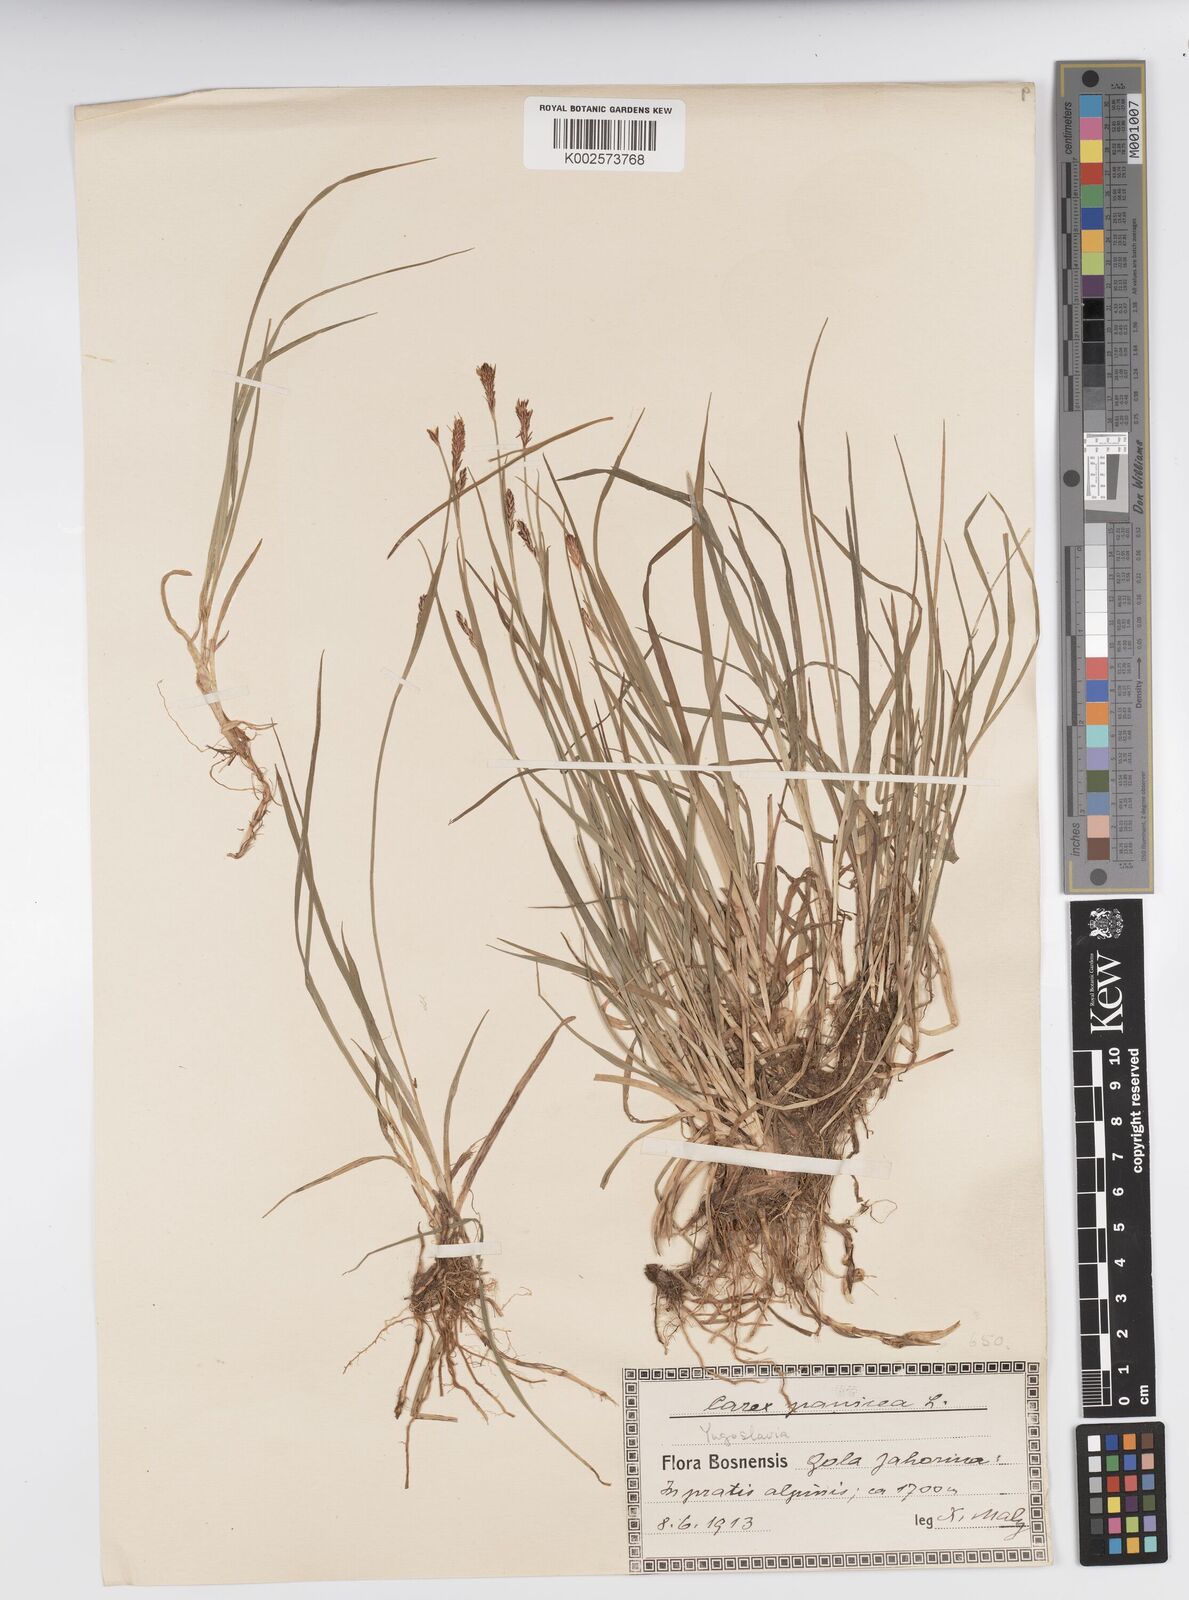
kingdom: Plantae
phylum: Tracheophyta
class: Liliopsida
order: Poales
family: Cyperaceae
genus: Carex
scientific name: Carex panicea
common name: Carnation sedge
